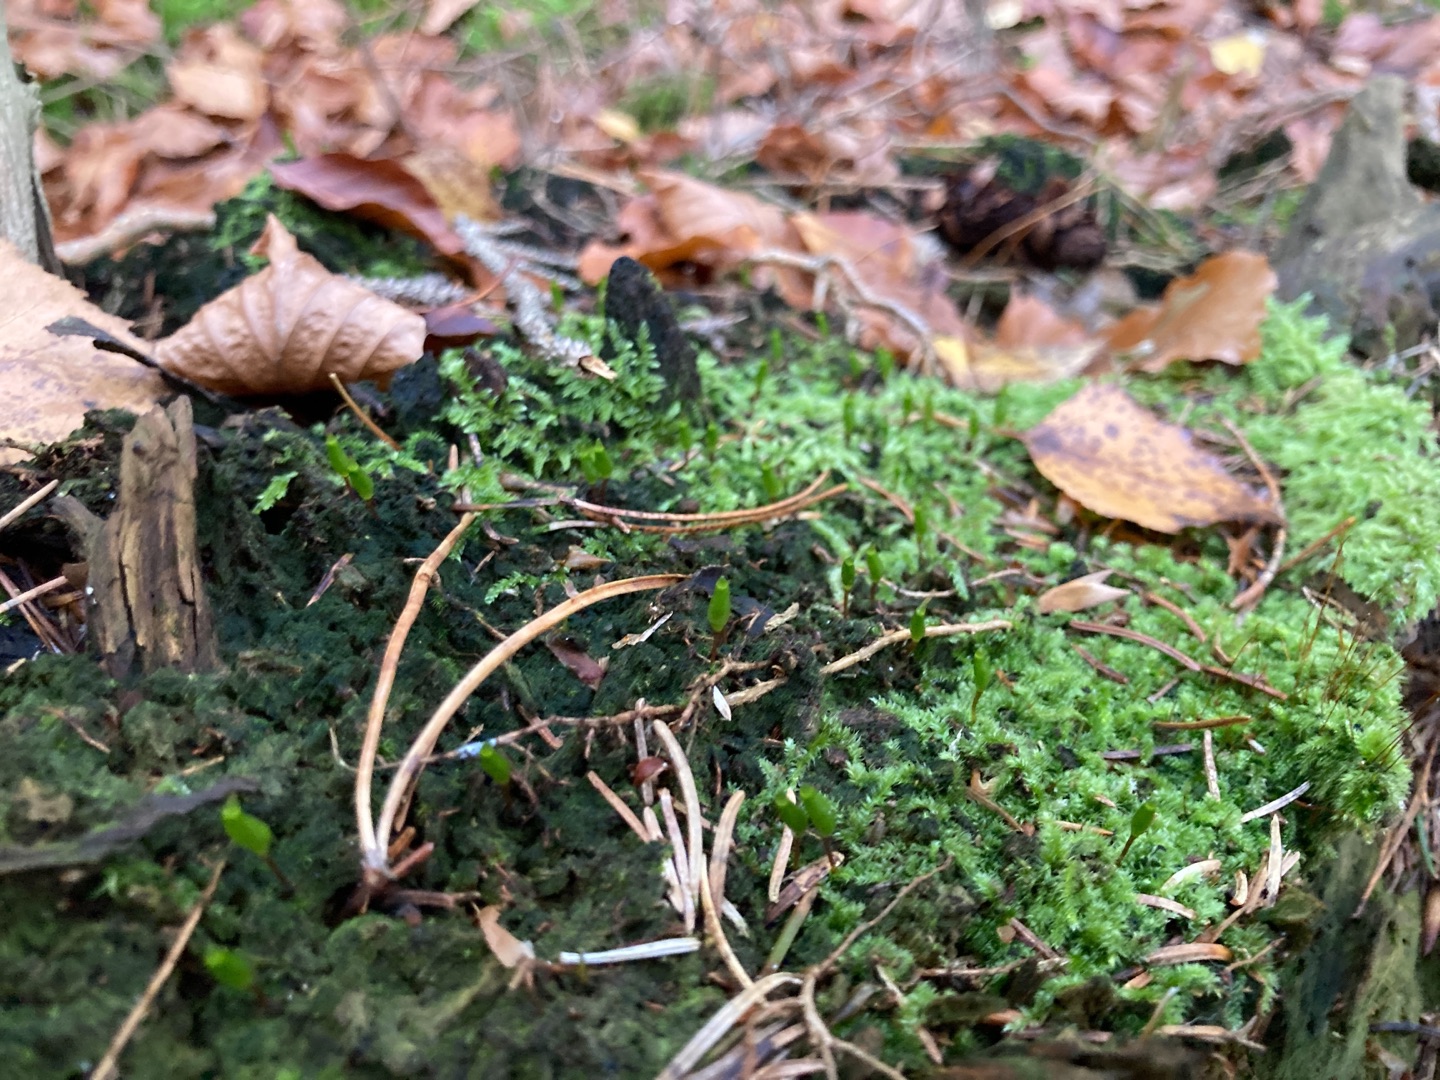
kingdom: Plantae
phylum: Bryophyta
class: Bryopsida
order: Buxbaumiales
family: Buxbaumiaceae
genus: Buxbaumia
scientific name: Buxbaumia viridis
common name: Grøn buxbaumia
